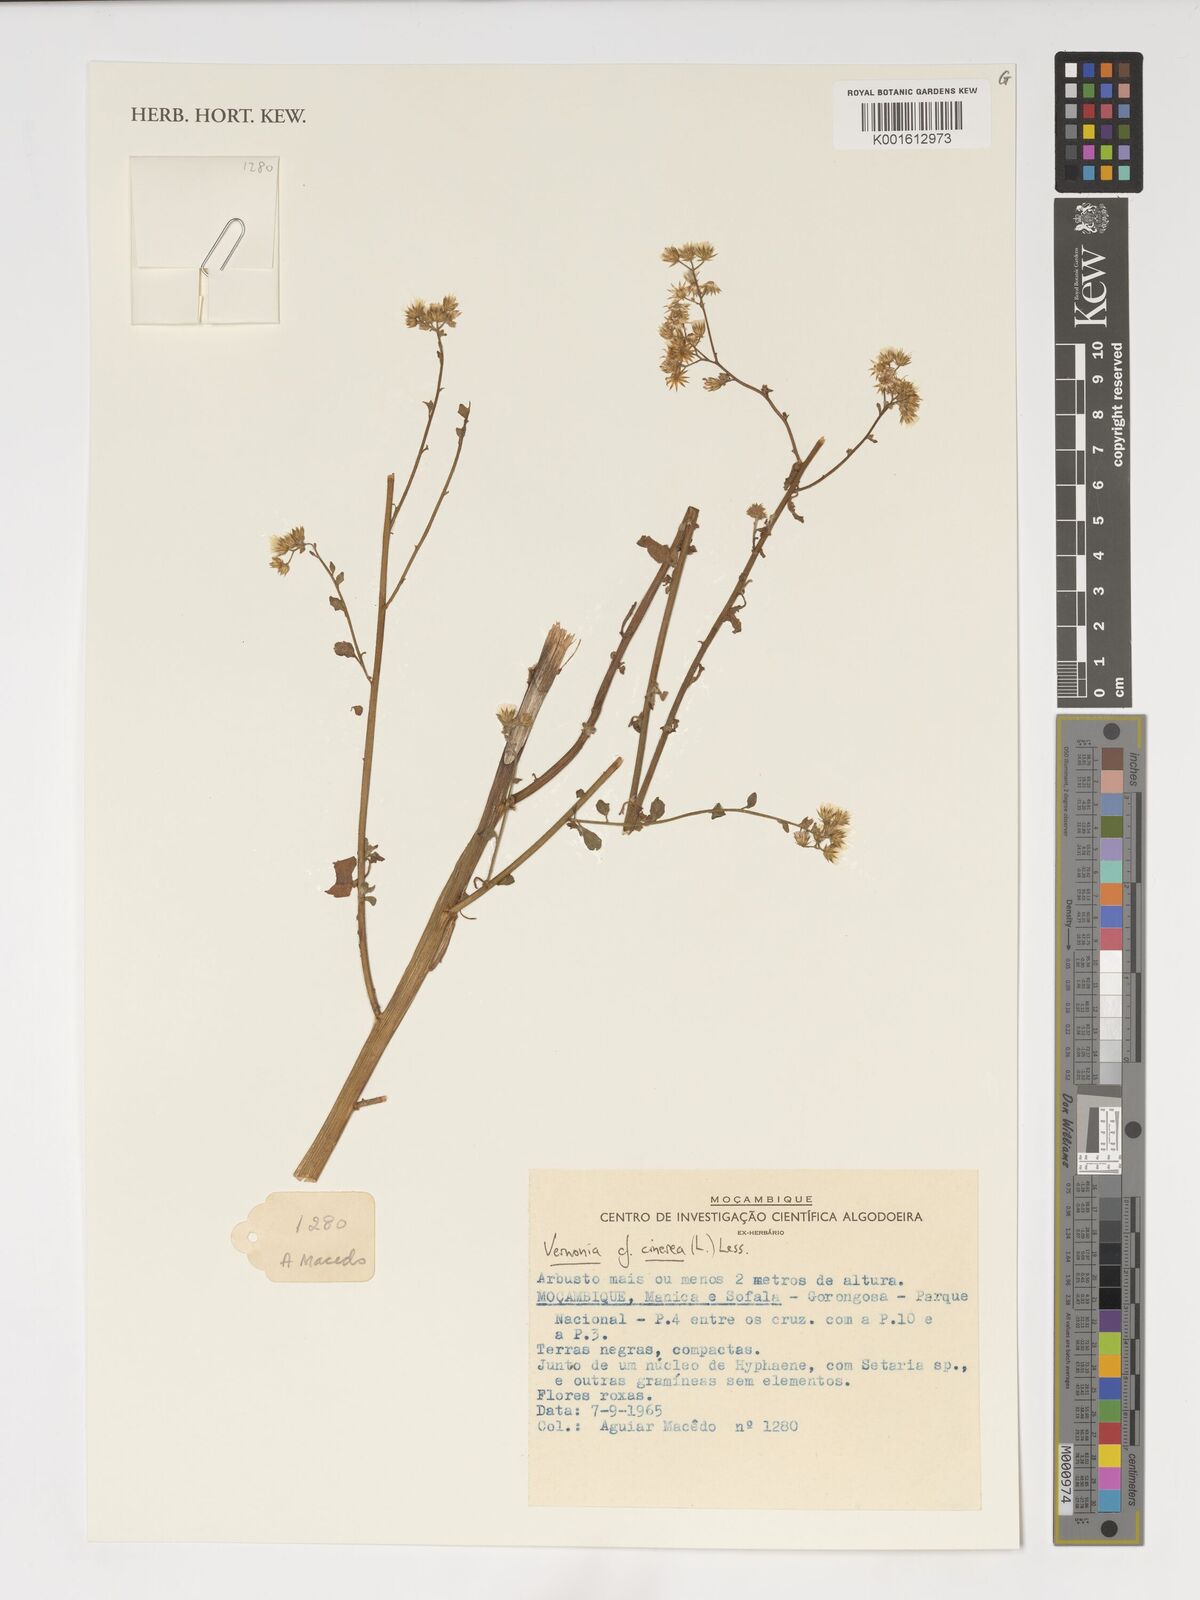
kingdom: Plantae
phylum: Tracheophyta
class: Magnoliopsida
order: Asterales
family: Asteraceae
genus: Cyanthillium
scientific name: Cyanthillium cinereum
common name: Little ironweed
